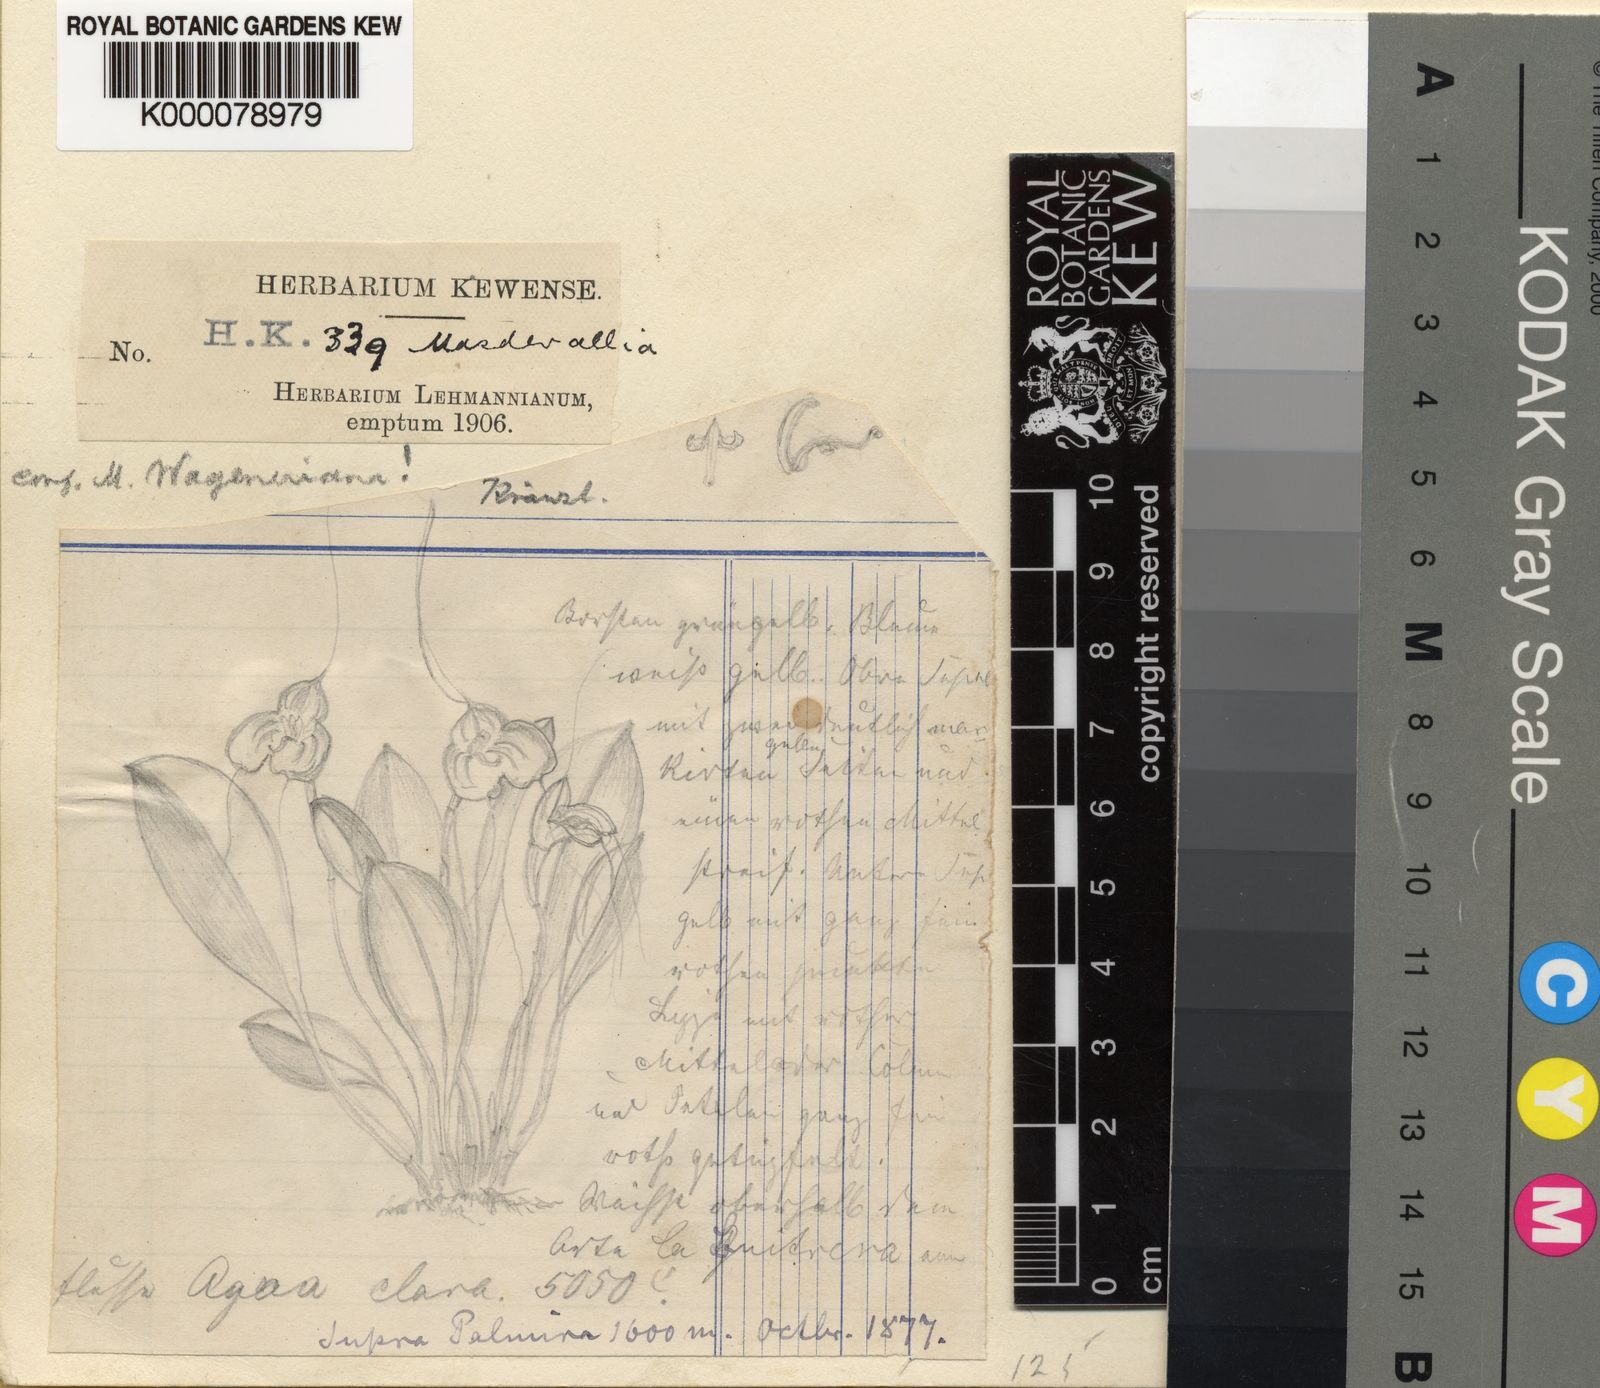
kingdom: Plantae
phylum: Tracheophyta
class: Liliopsida
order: Asparagales
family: Orchidaceae
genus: Masdevallia
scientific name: Masdevallia
